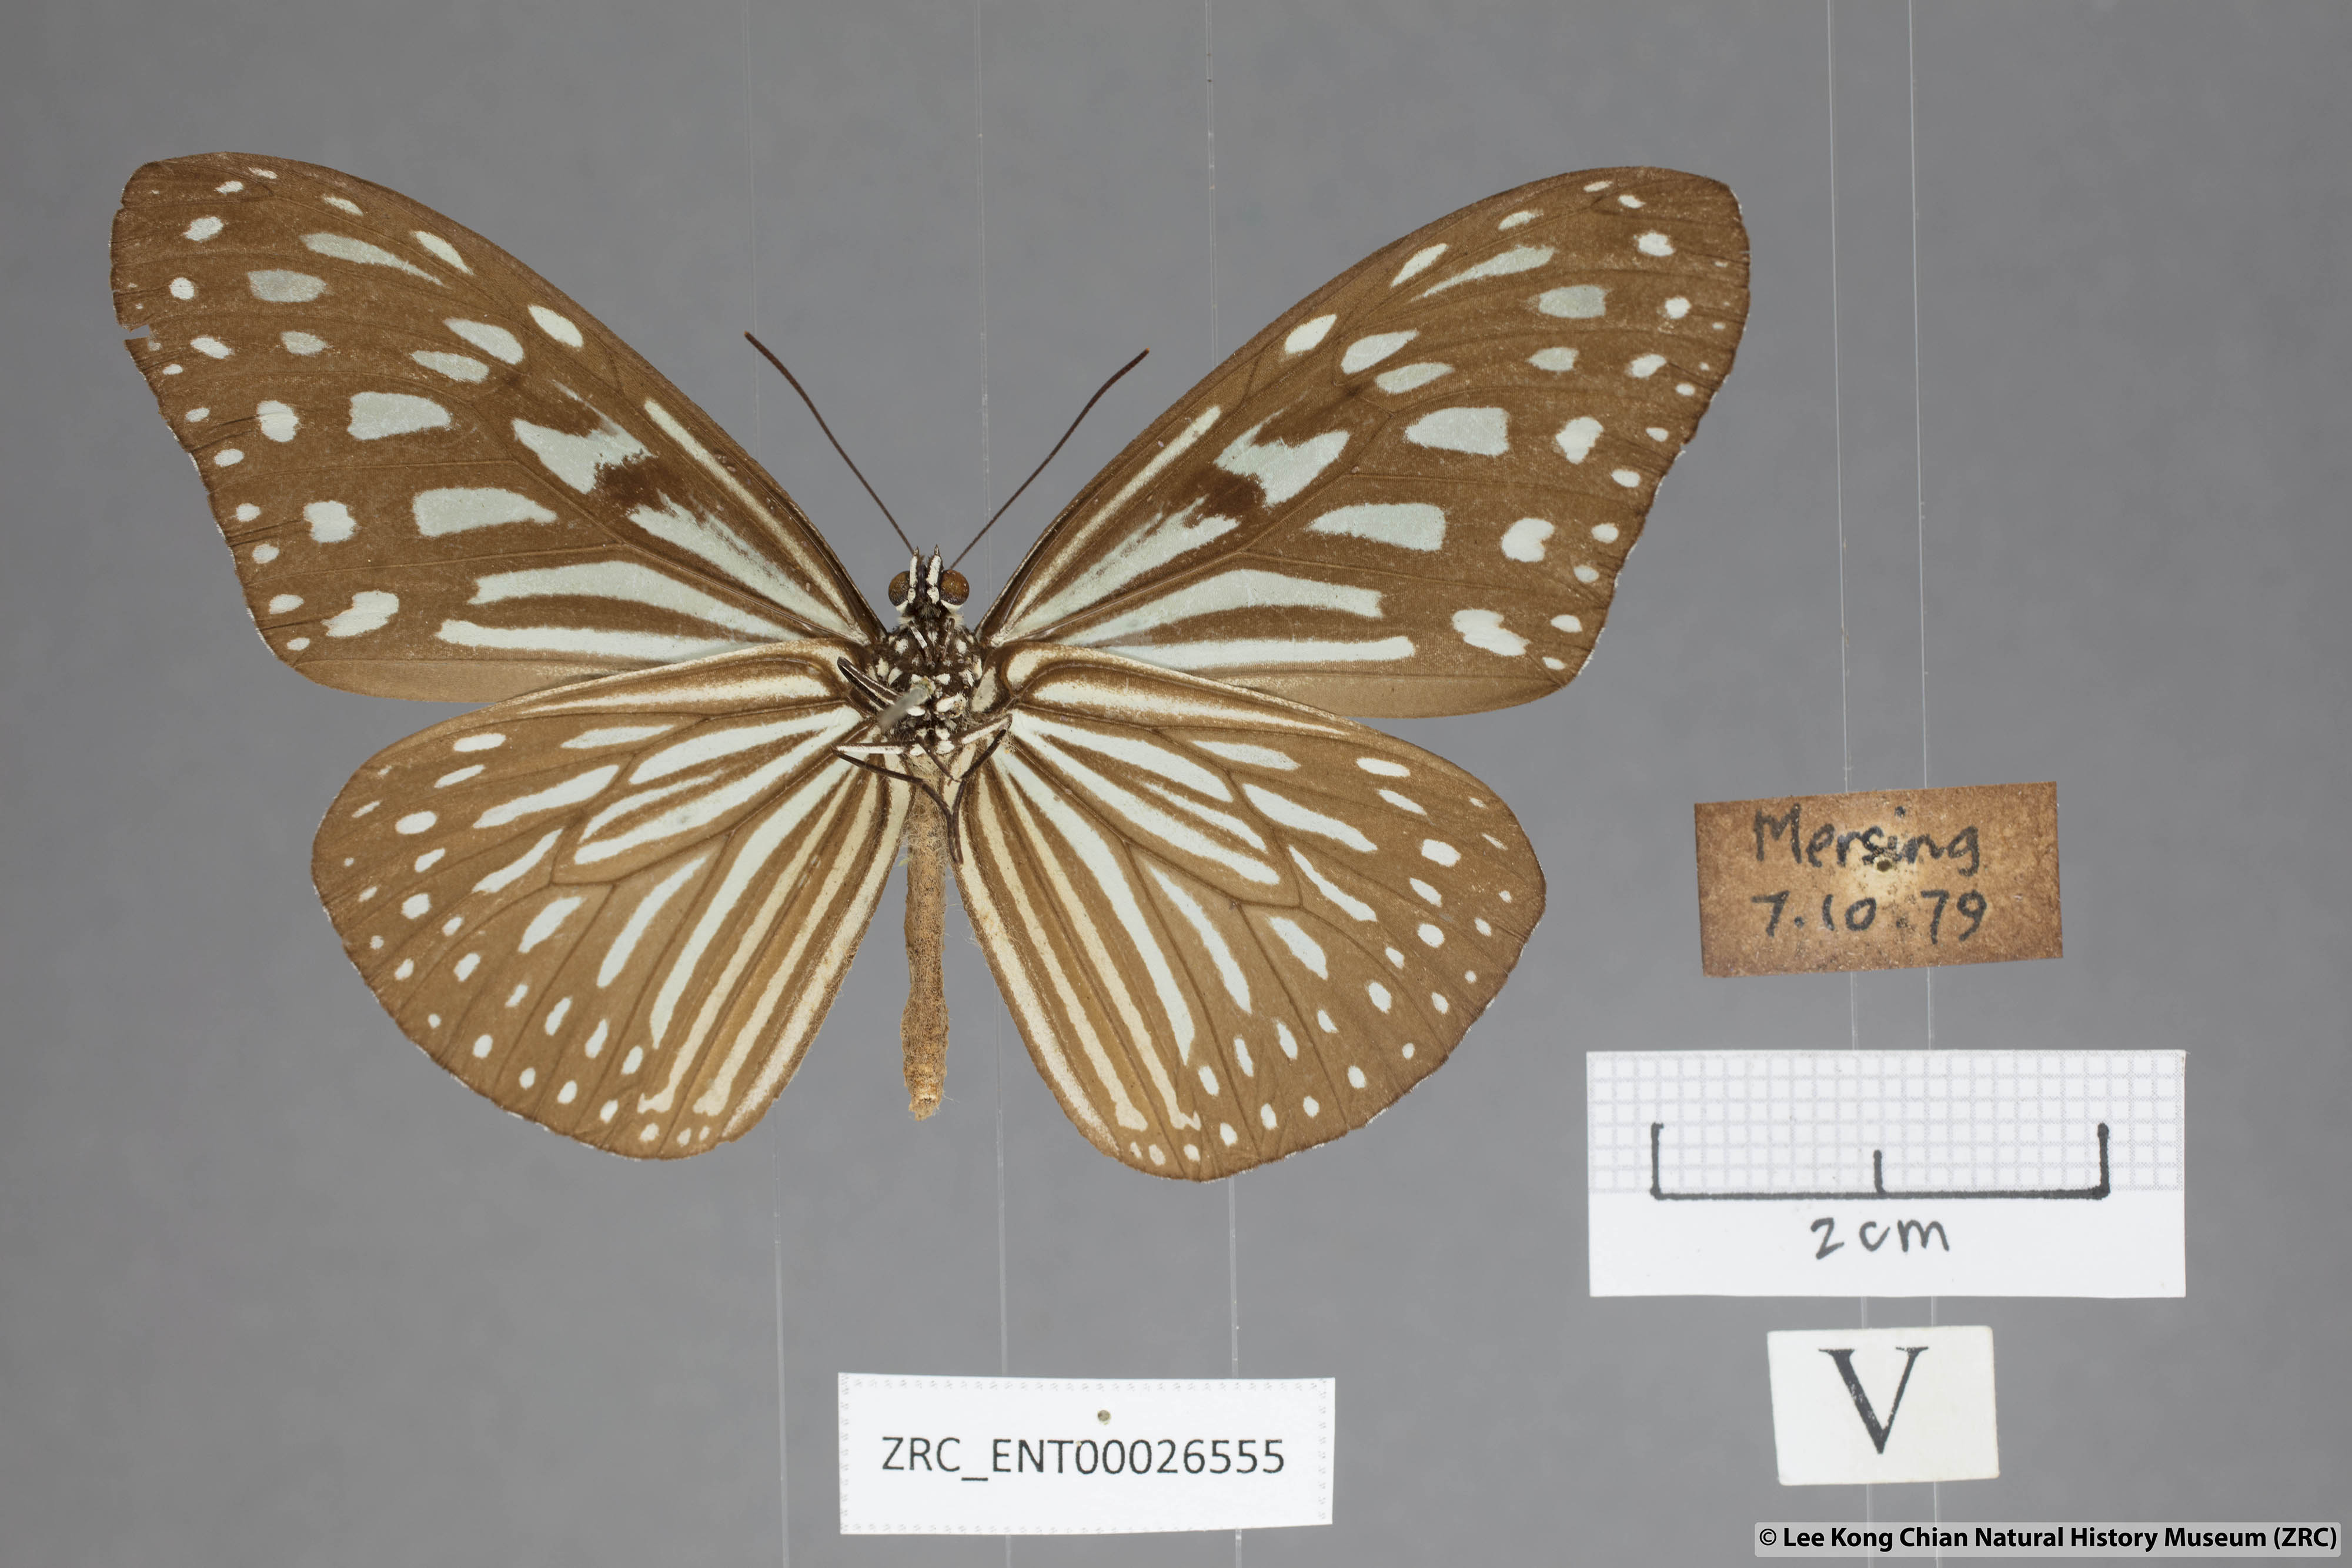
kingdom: Animalia
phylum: Arthropoda
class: Insecta
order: Lepidoptera
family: Nymphalidae
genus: Ideopsis
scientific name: Ideopsis vulgaris
